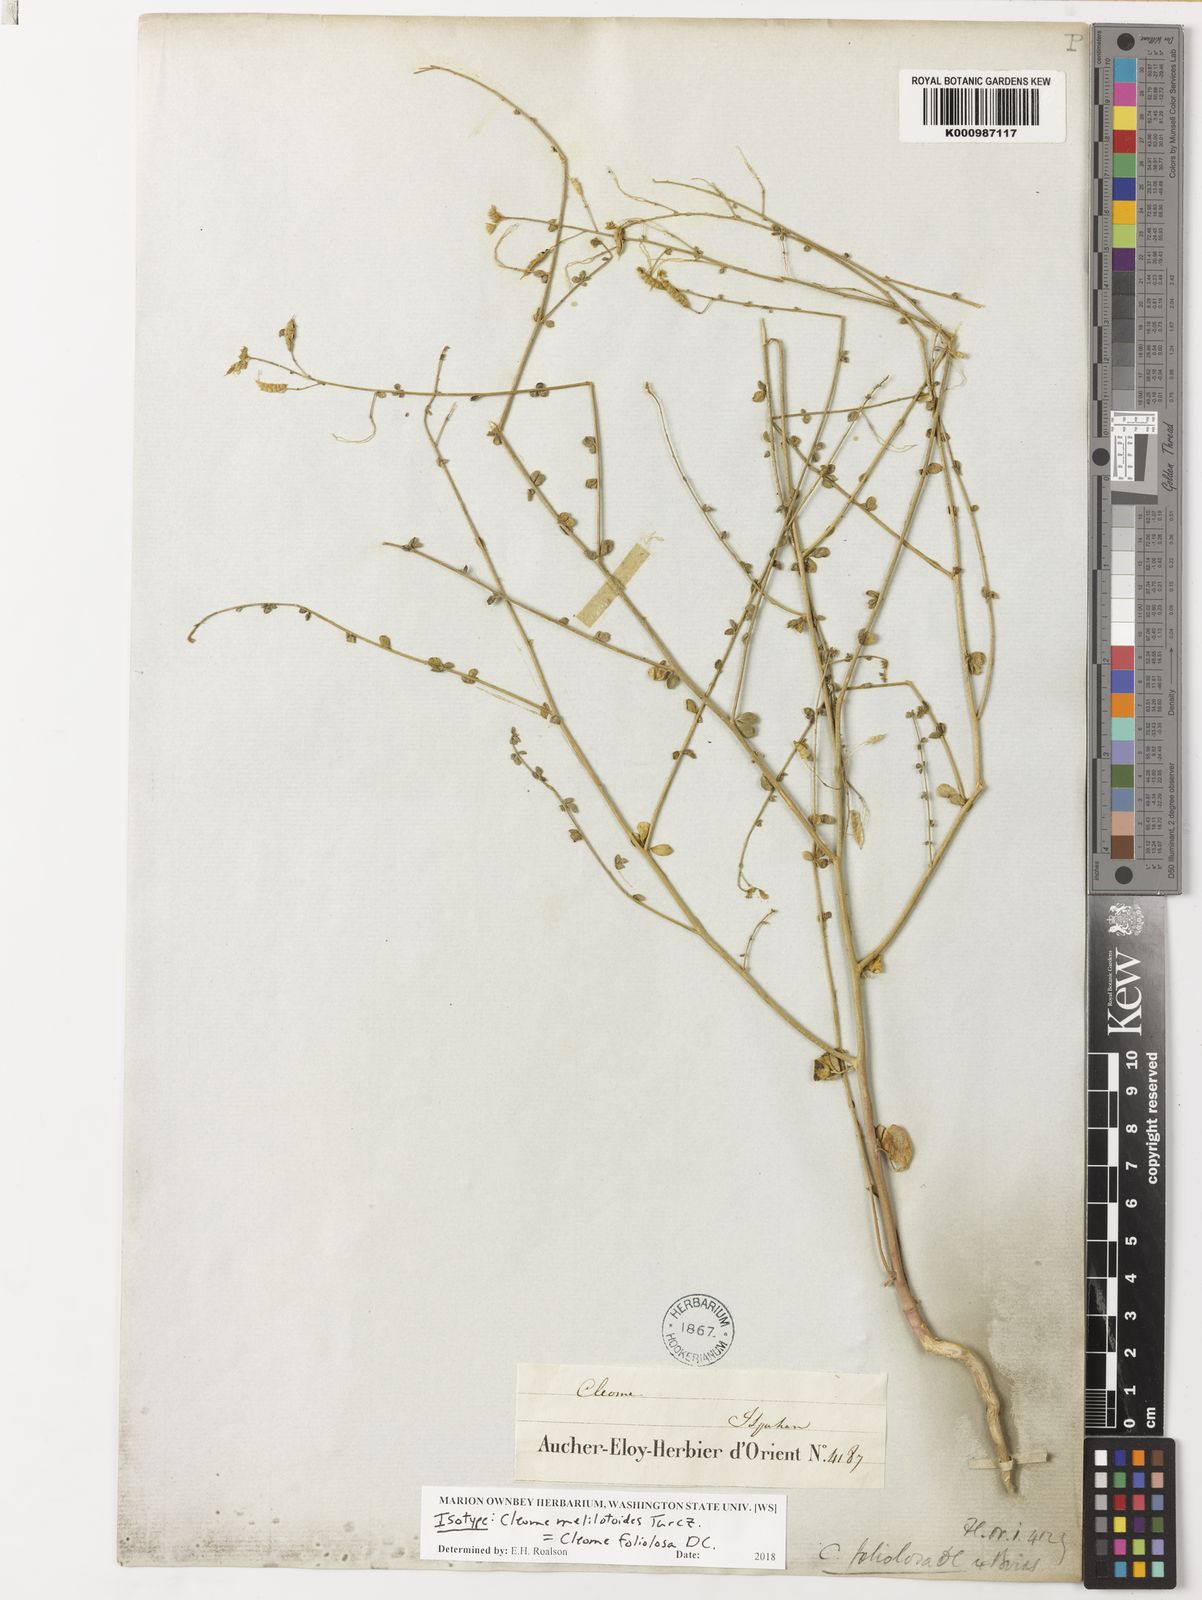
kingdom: Plantae
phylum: Tracheophyta
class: Magnoliopsida
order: Brassicales
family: Cleomaceae
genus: Cleome
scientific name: Cleome foliolosa
